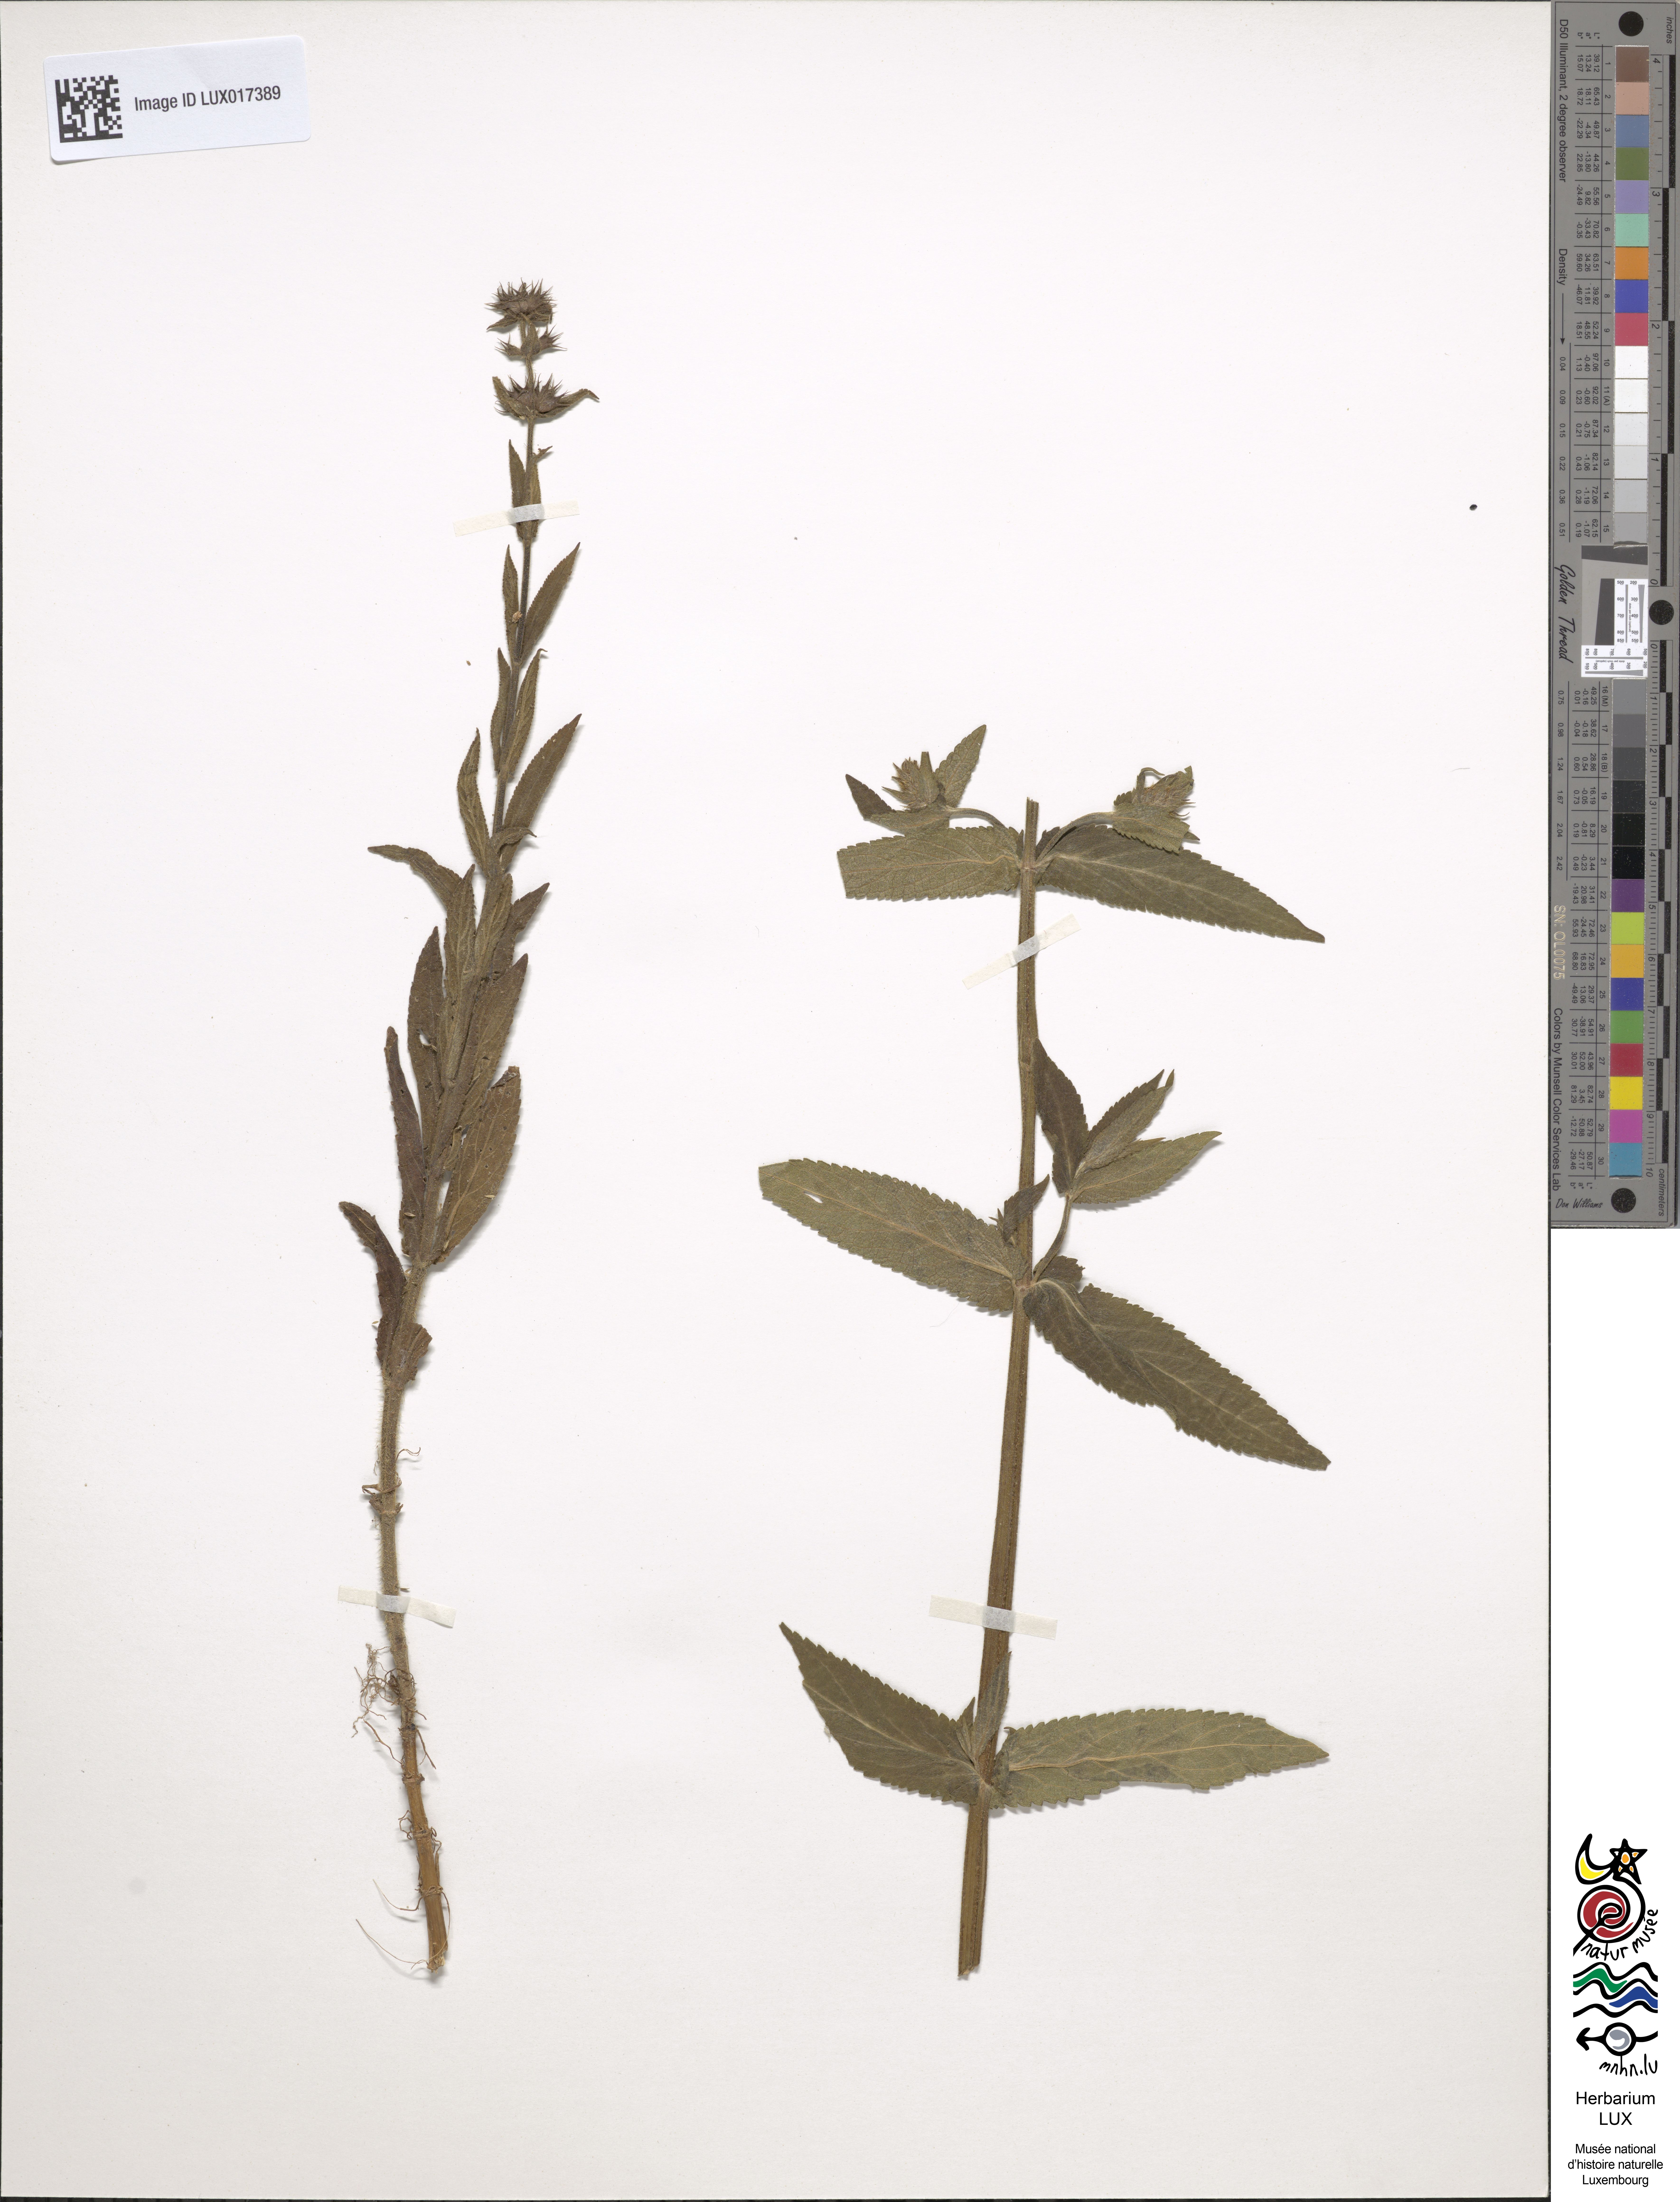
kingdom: Plantae
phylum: Tracheophyta
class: Magnoliopsida
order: Lamiales
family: Lamiaceae
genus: Stachys
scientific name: Stachys palustris
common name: Marsh woundwort
